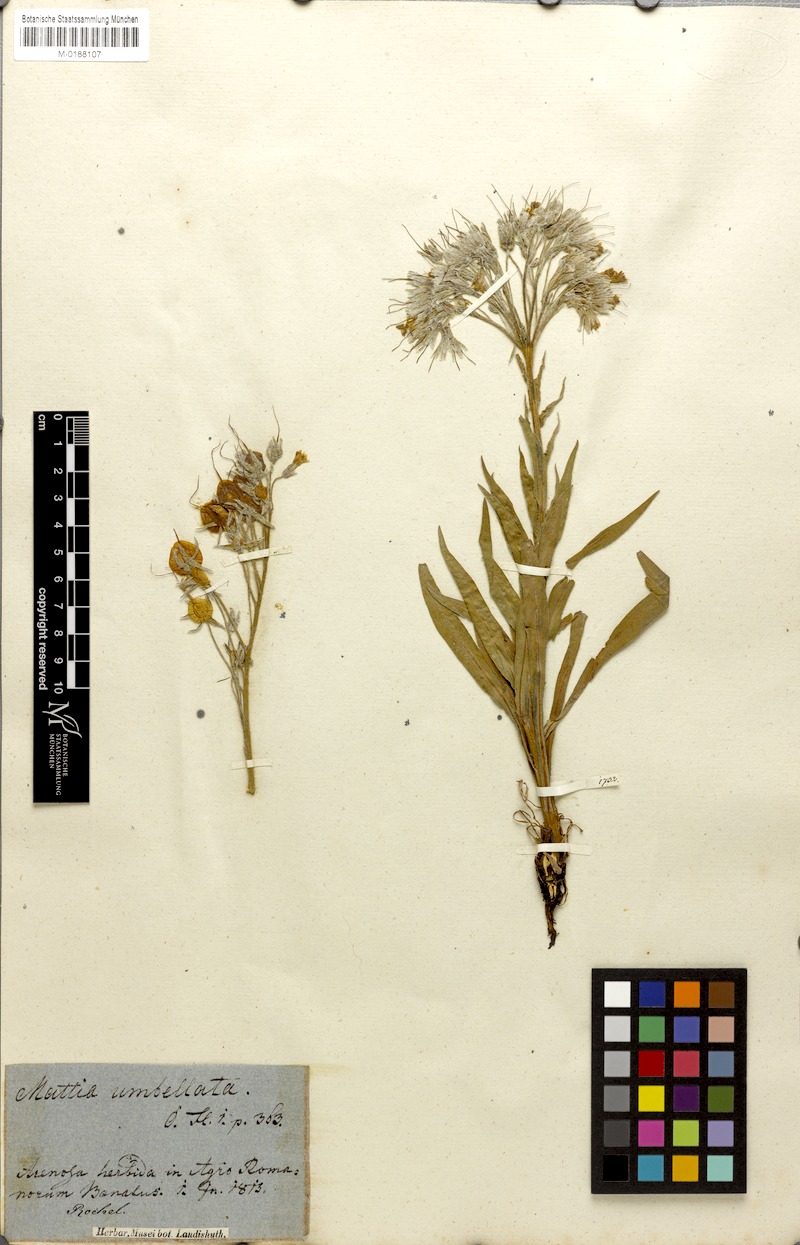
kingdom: Plantae
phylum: Tracheophyta
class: Magnoliopsida
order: Boraginales
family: Boraginaceae
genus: Rindera
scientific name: Rindera umbellata
